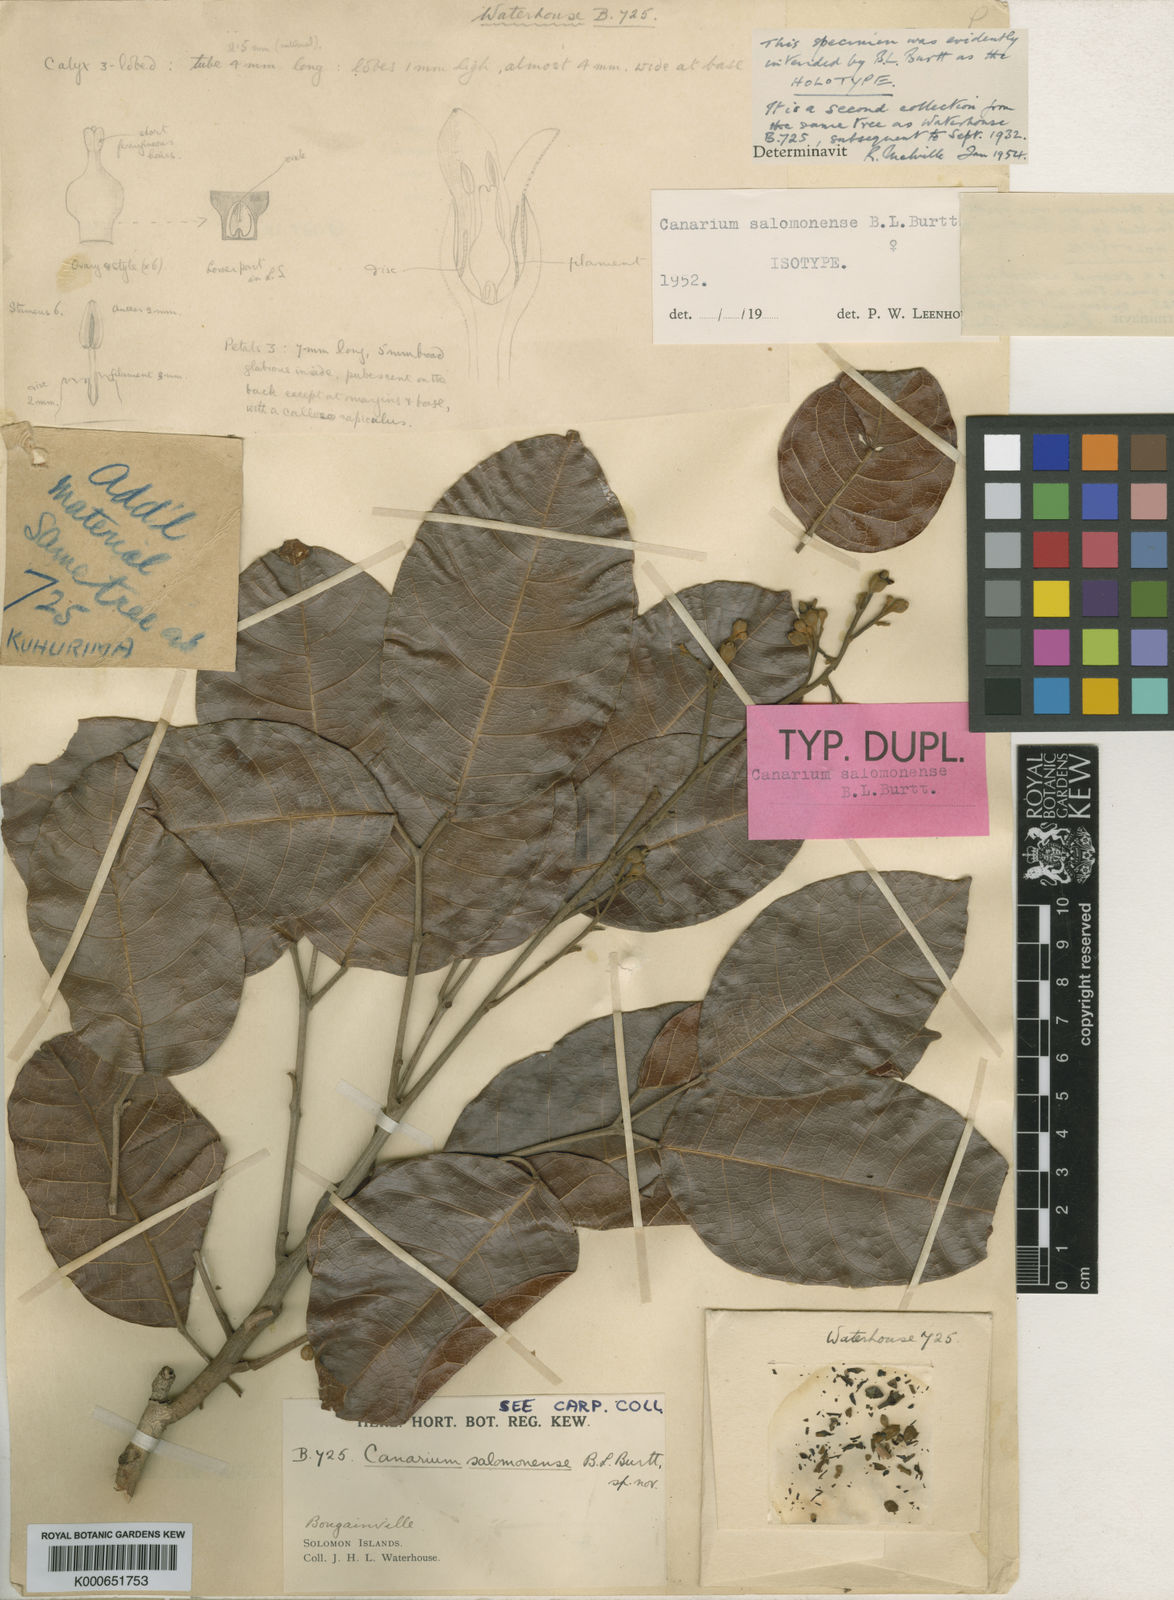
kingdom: Plantae
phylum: Tracheophyta
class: Magnoliopsida
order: Sapindales
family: Burseraceae
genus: Canarium
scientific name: Canarium salomonense
